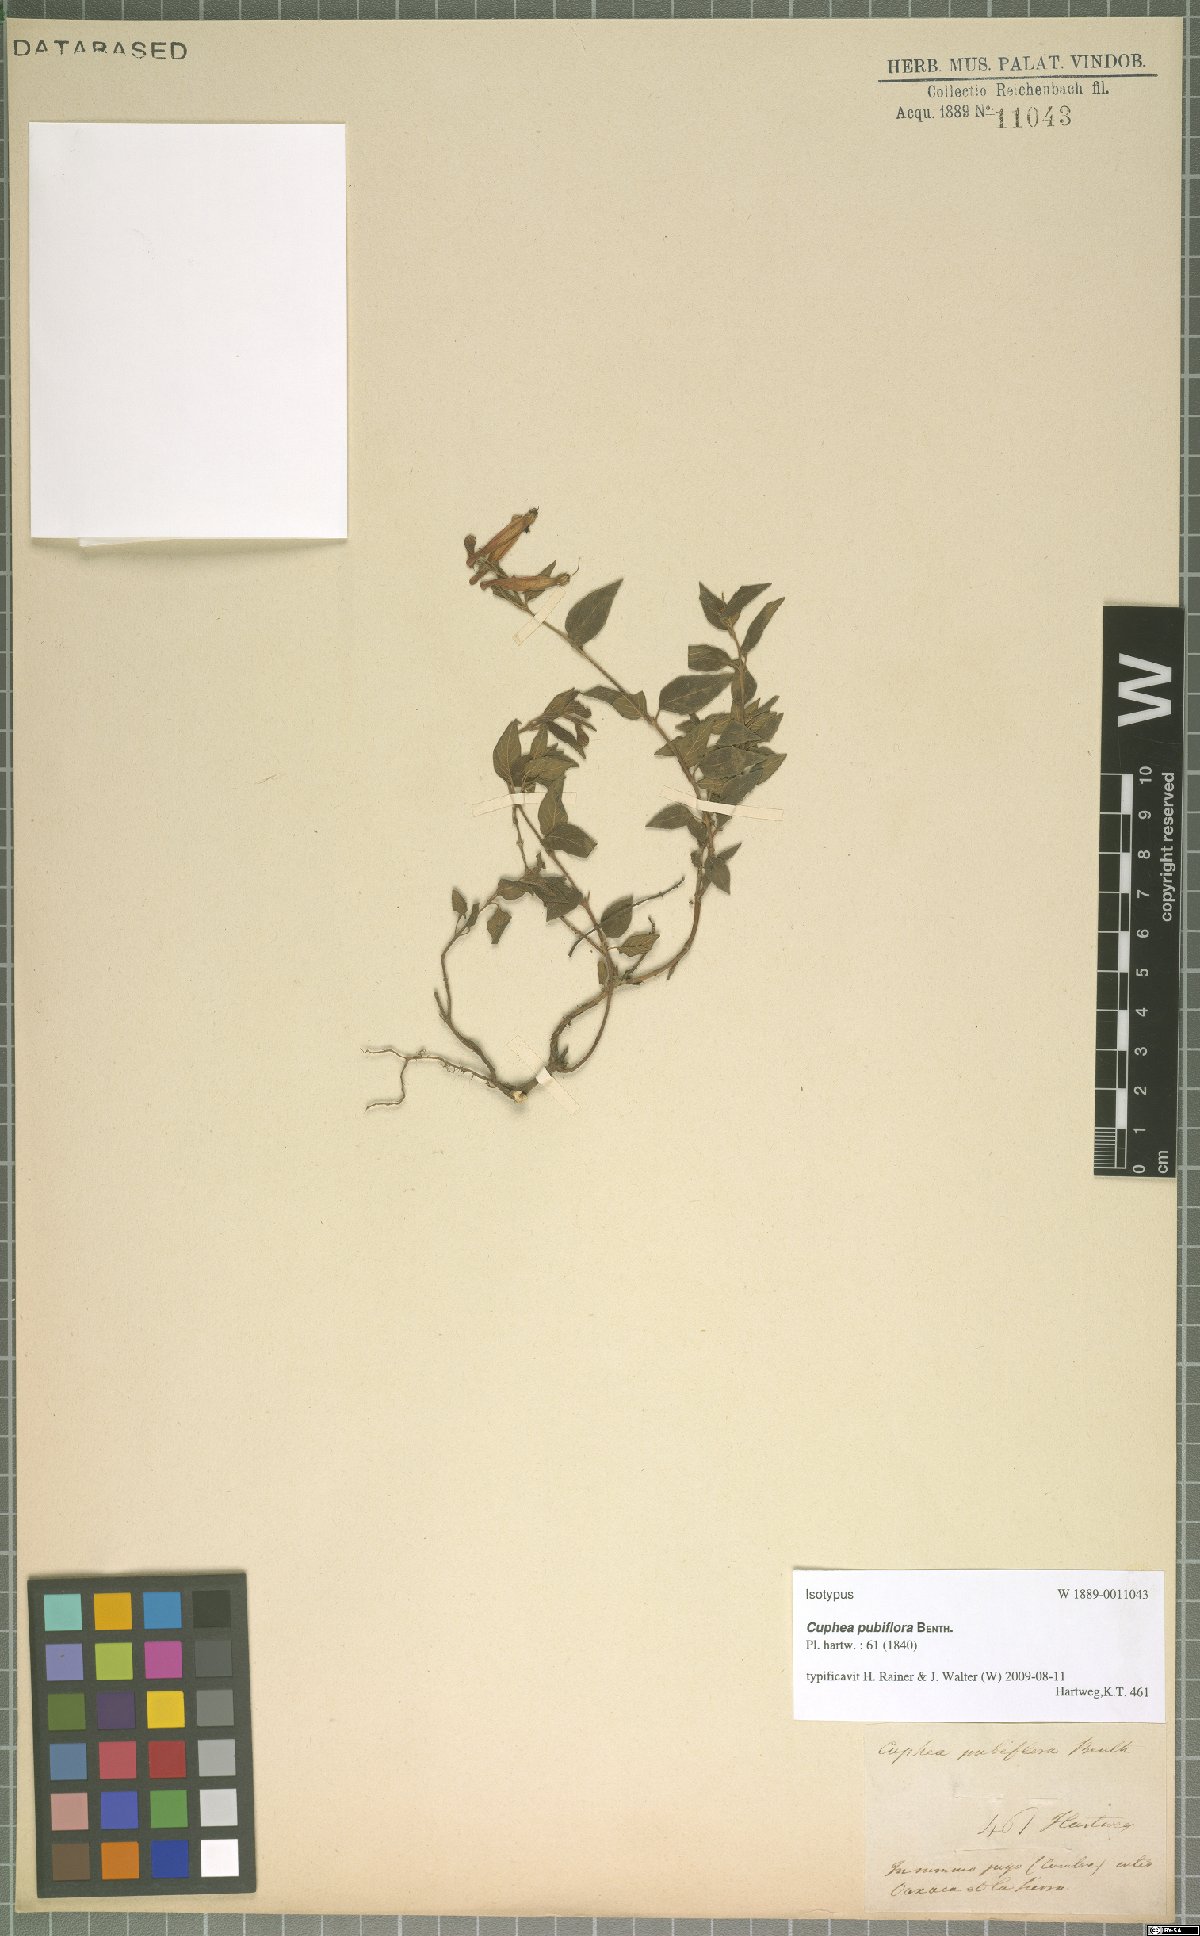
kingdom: Plantae
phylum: Tracheophyta
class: Magnoliopsida
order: Myrtales
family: Lythraceae
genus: Cuphea
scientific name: Cuphea cyanea
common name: Black-eyed cuphea
